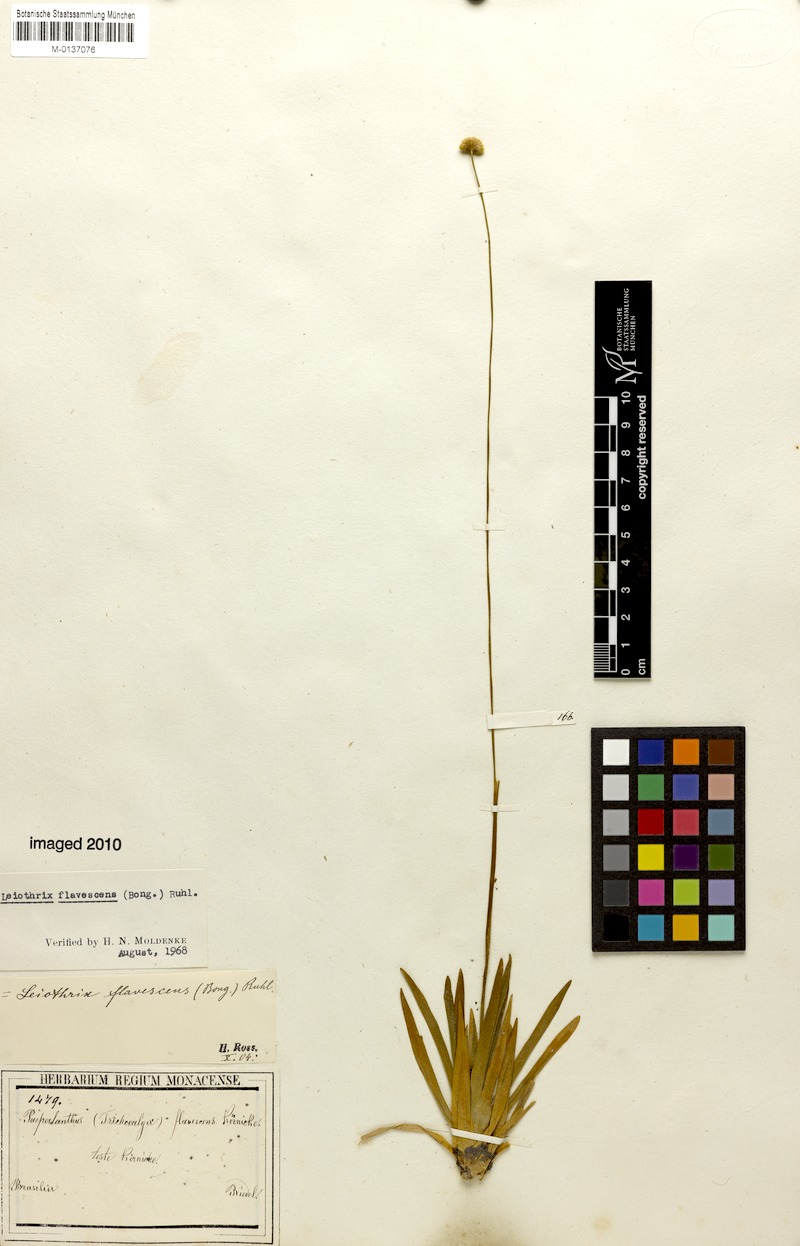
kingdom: Plantae
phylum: Tracheophyta
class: Liliopsida
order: Poales
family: Eriocaulaceae
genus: Leiothrix
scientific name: Leiothrix flavescens
